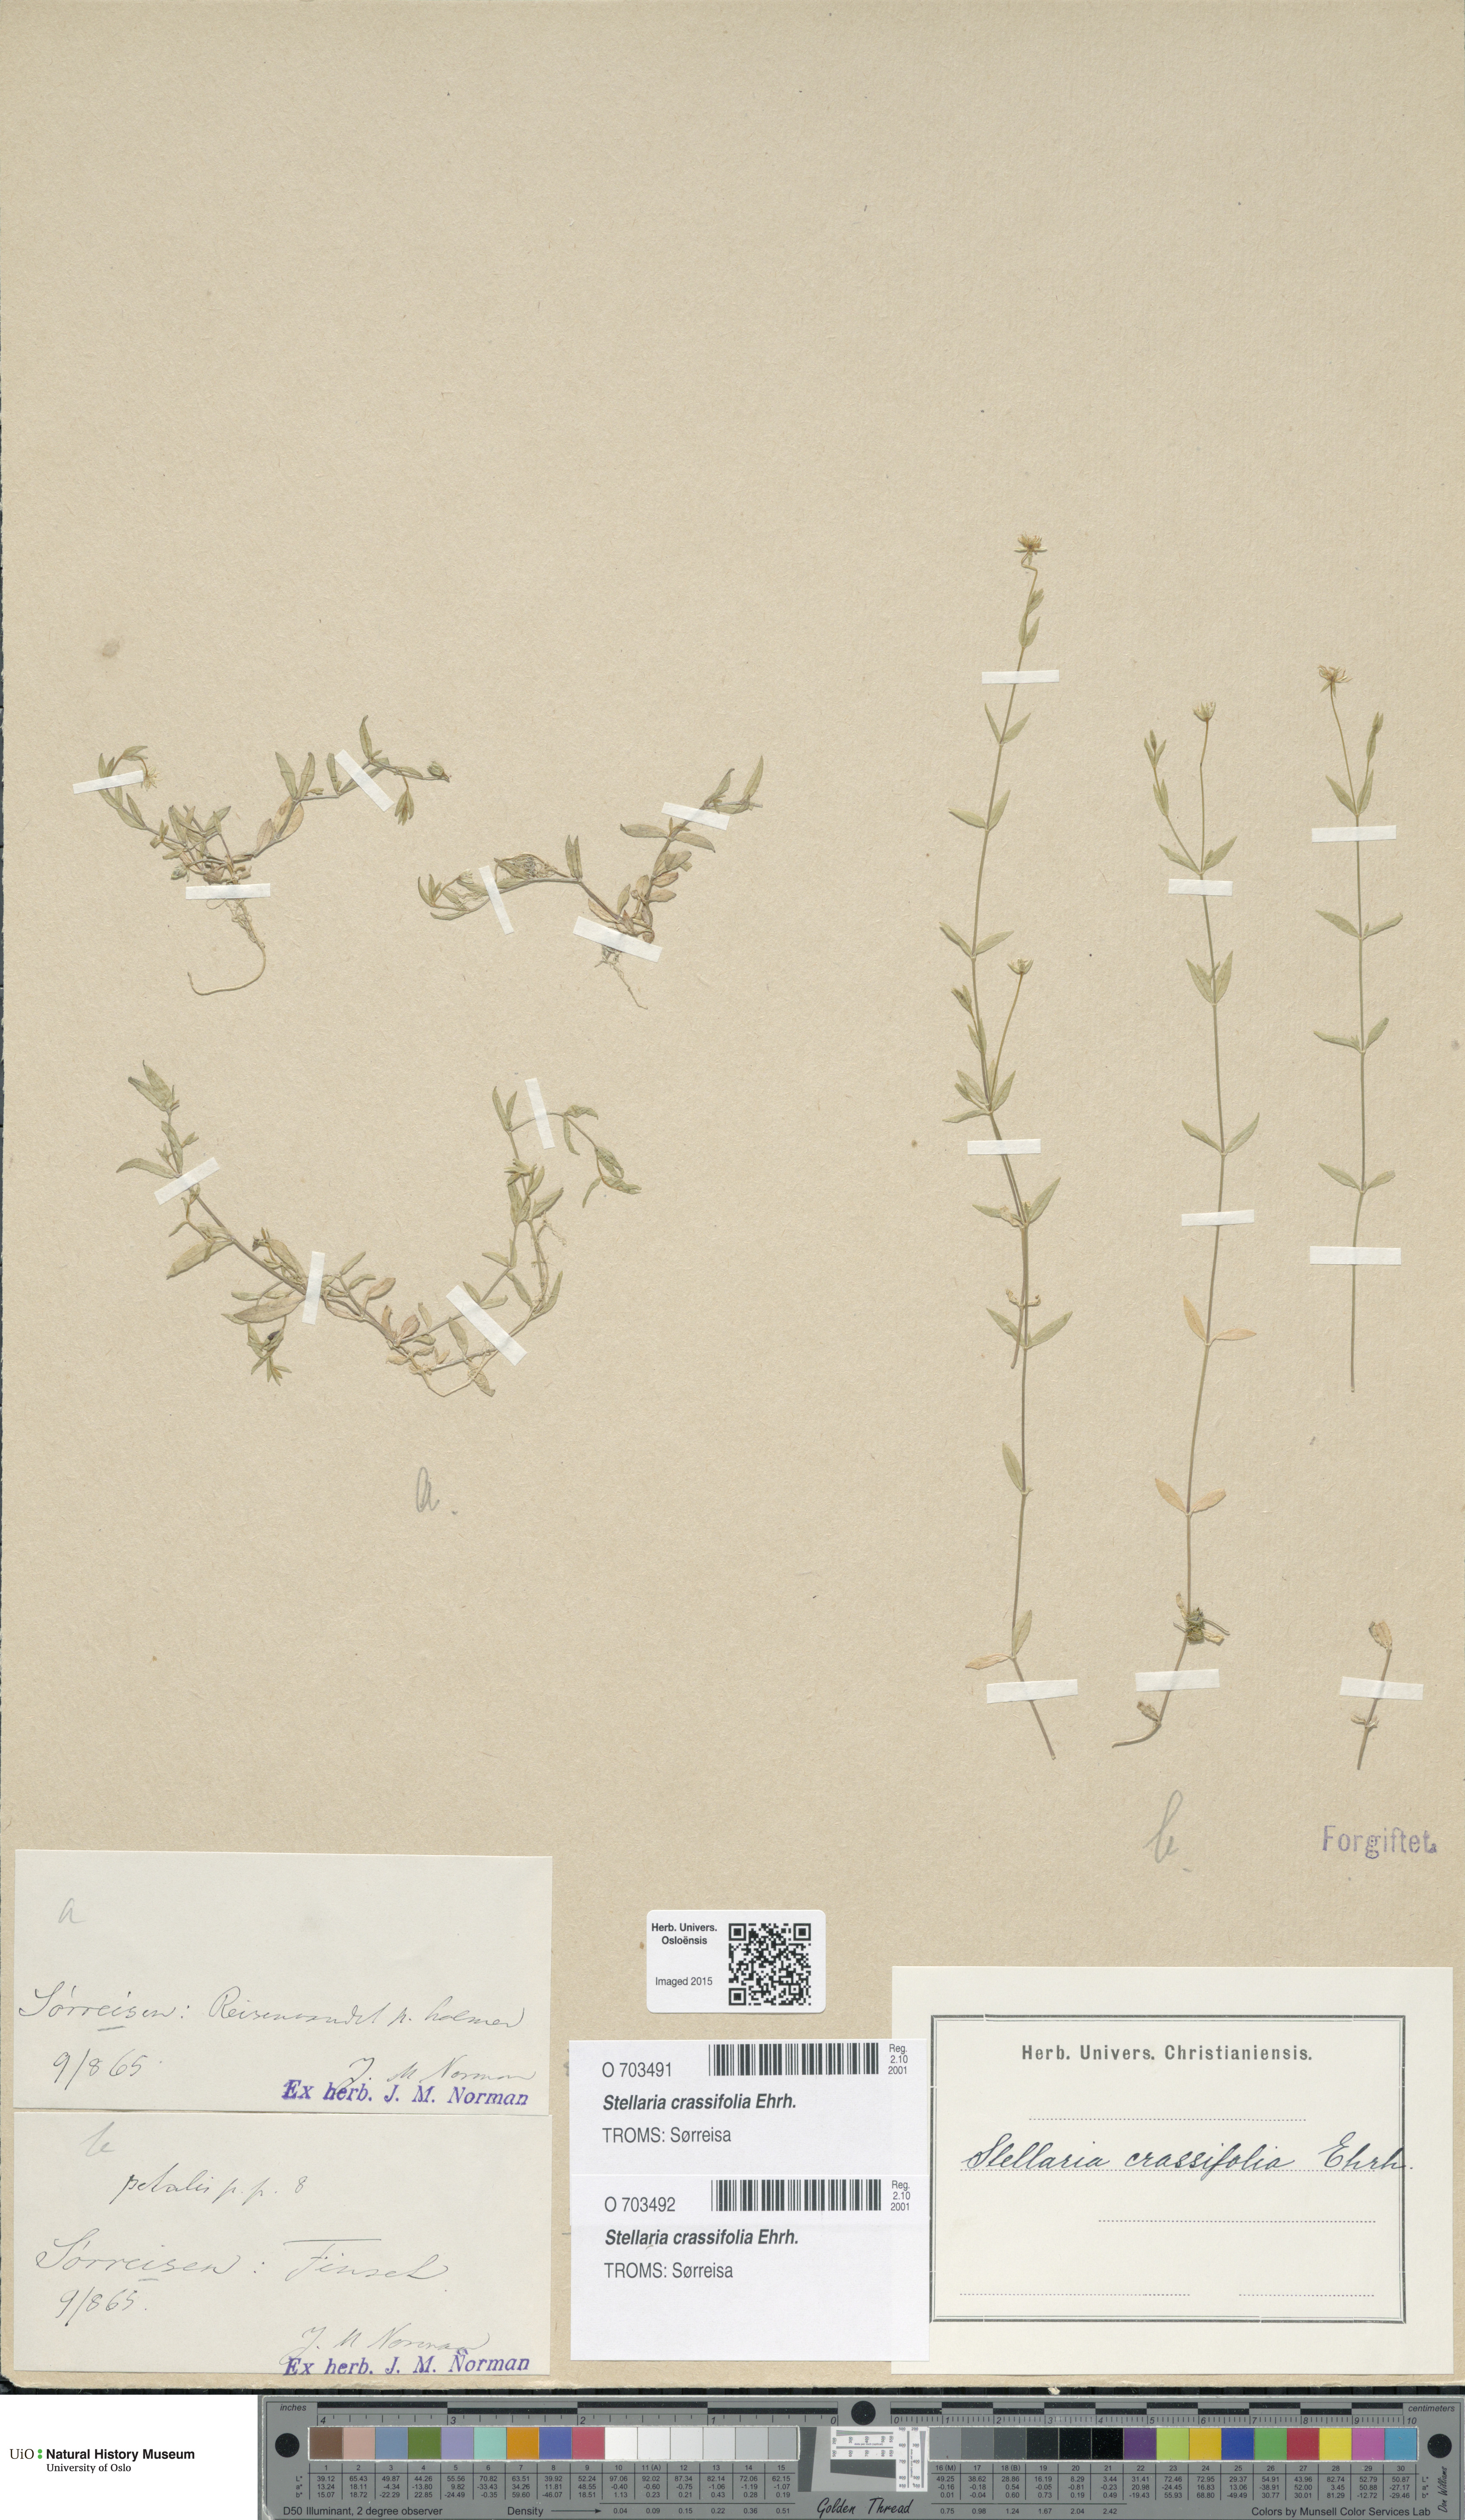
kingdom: Plantae
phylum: Tracheophyta
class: Magnoliopsida
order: Caryophyllales
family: Caryophyllaceae
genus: Stellaria
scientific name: Stellaria crassifolia
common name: Fleshy starwort
